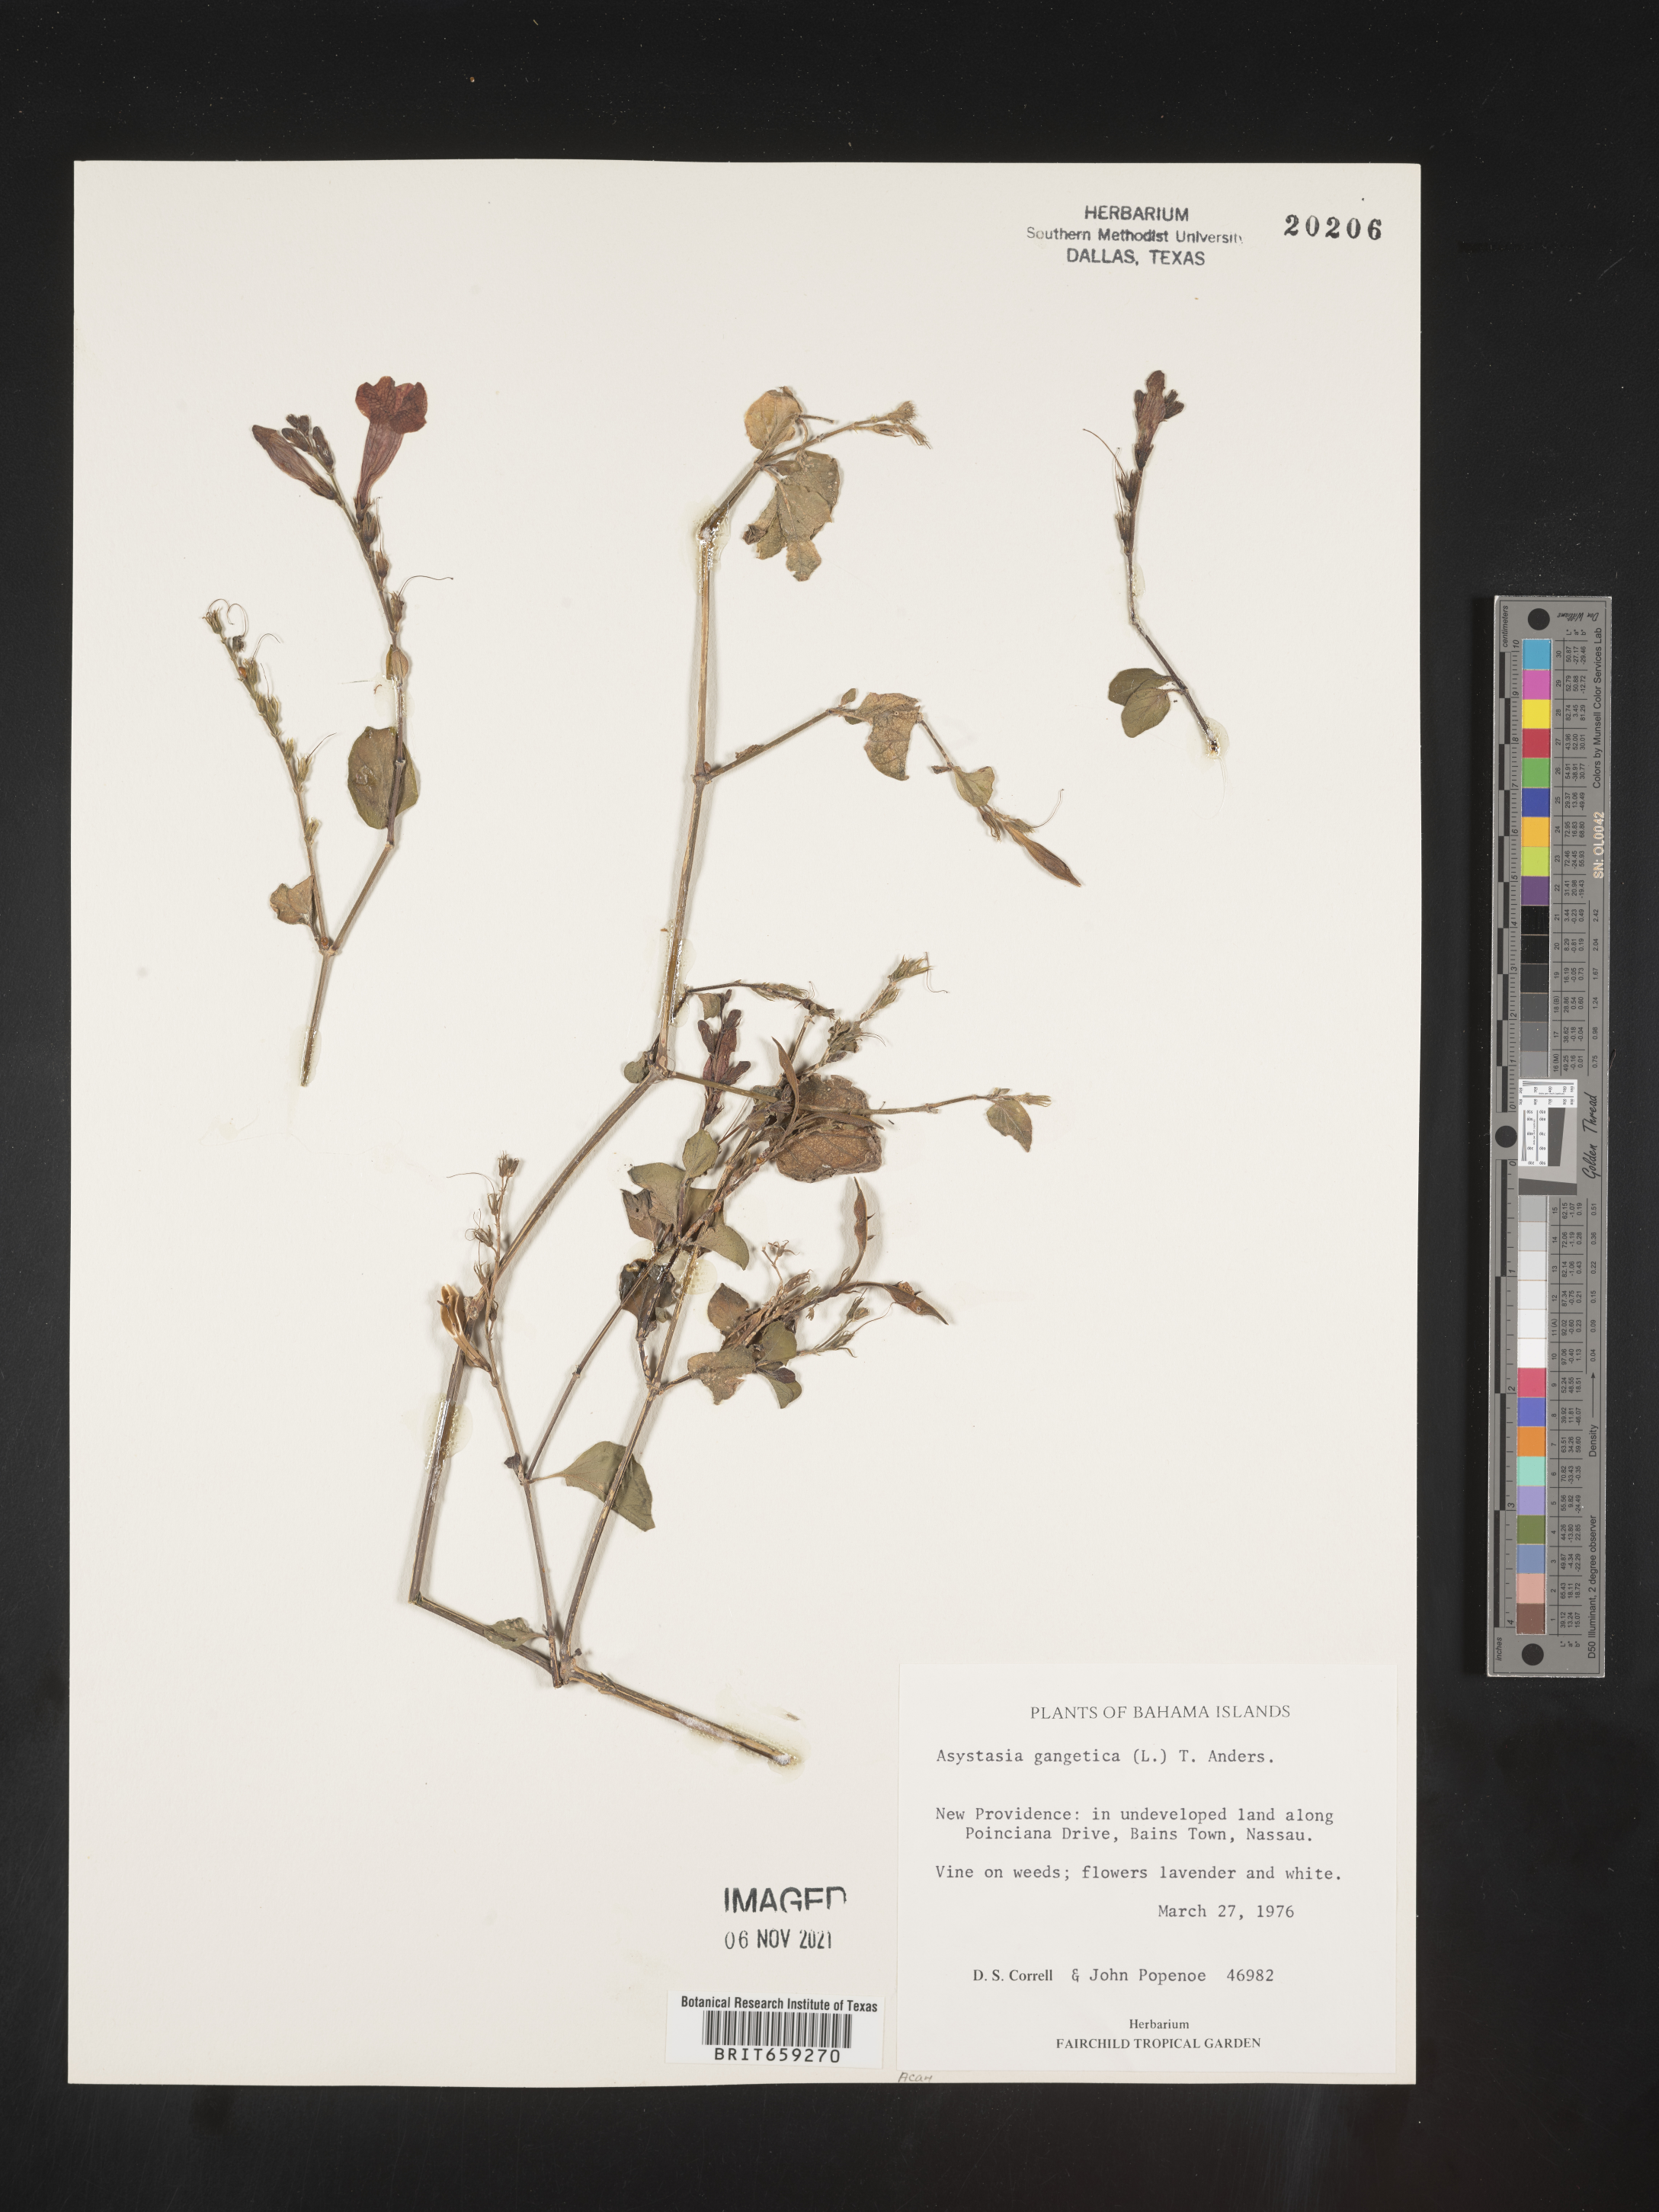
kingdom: Plantae
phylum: Tracheophyta
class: Magnoliopsida
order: Lamiales
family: Acanthaceae
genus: Asystasia
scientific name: Asystasia
